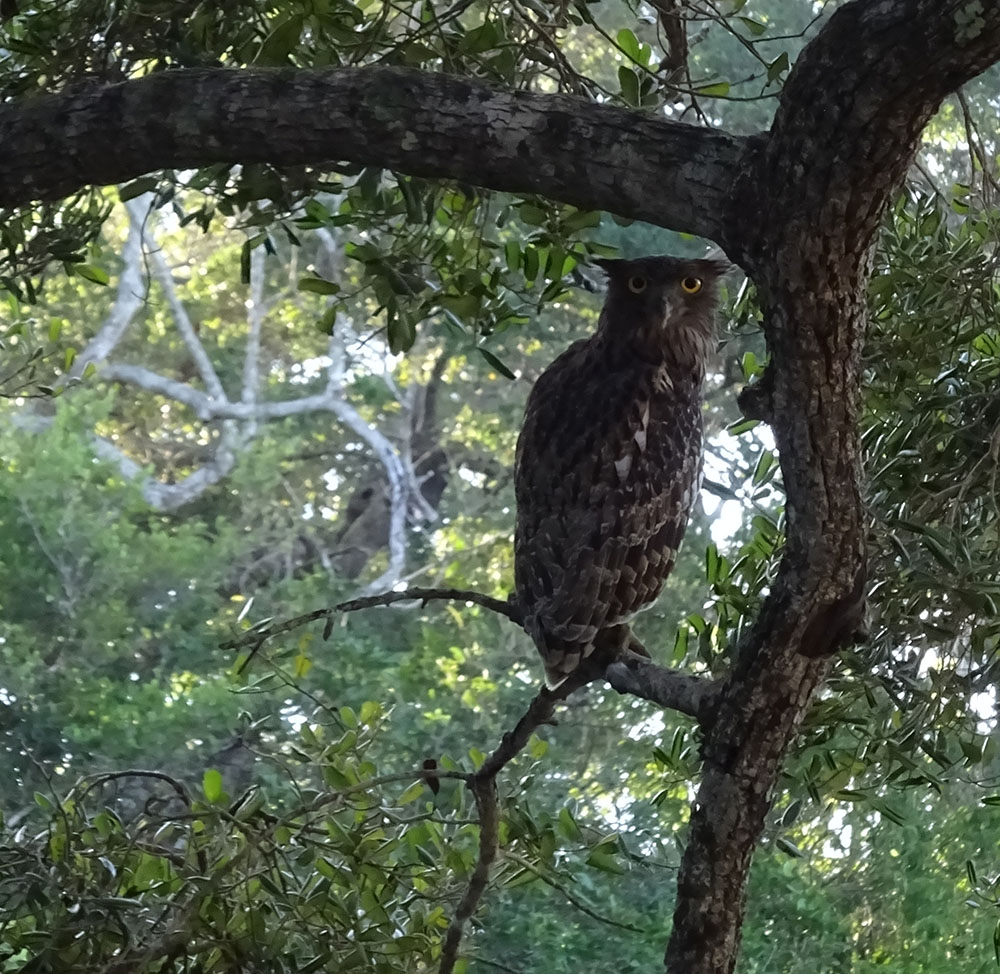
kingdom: Animalia
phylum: Chordata
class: Aves
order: Strigiformes
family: Strigidae
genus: Ketupa
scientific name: Ketupa zeylonensis
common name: Brown fish owl
